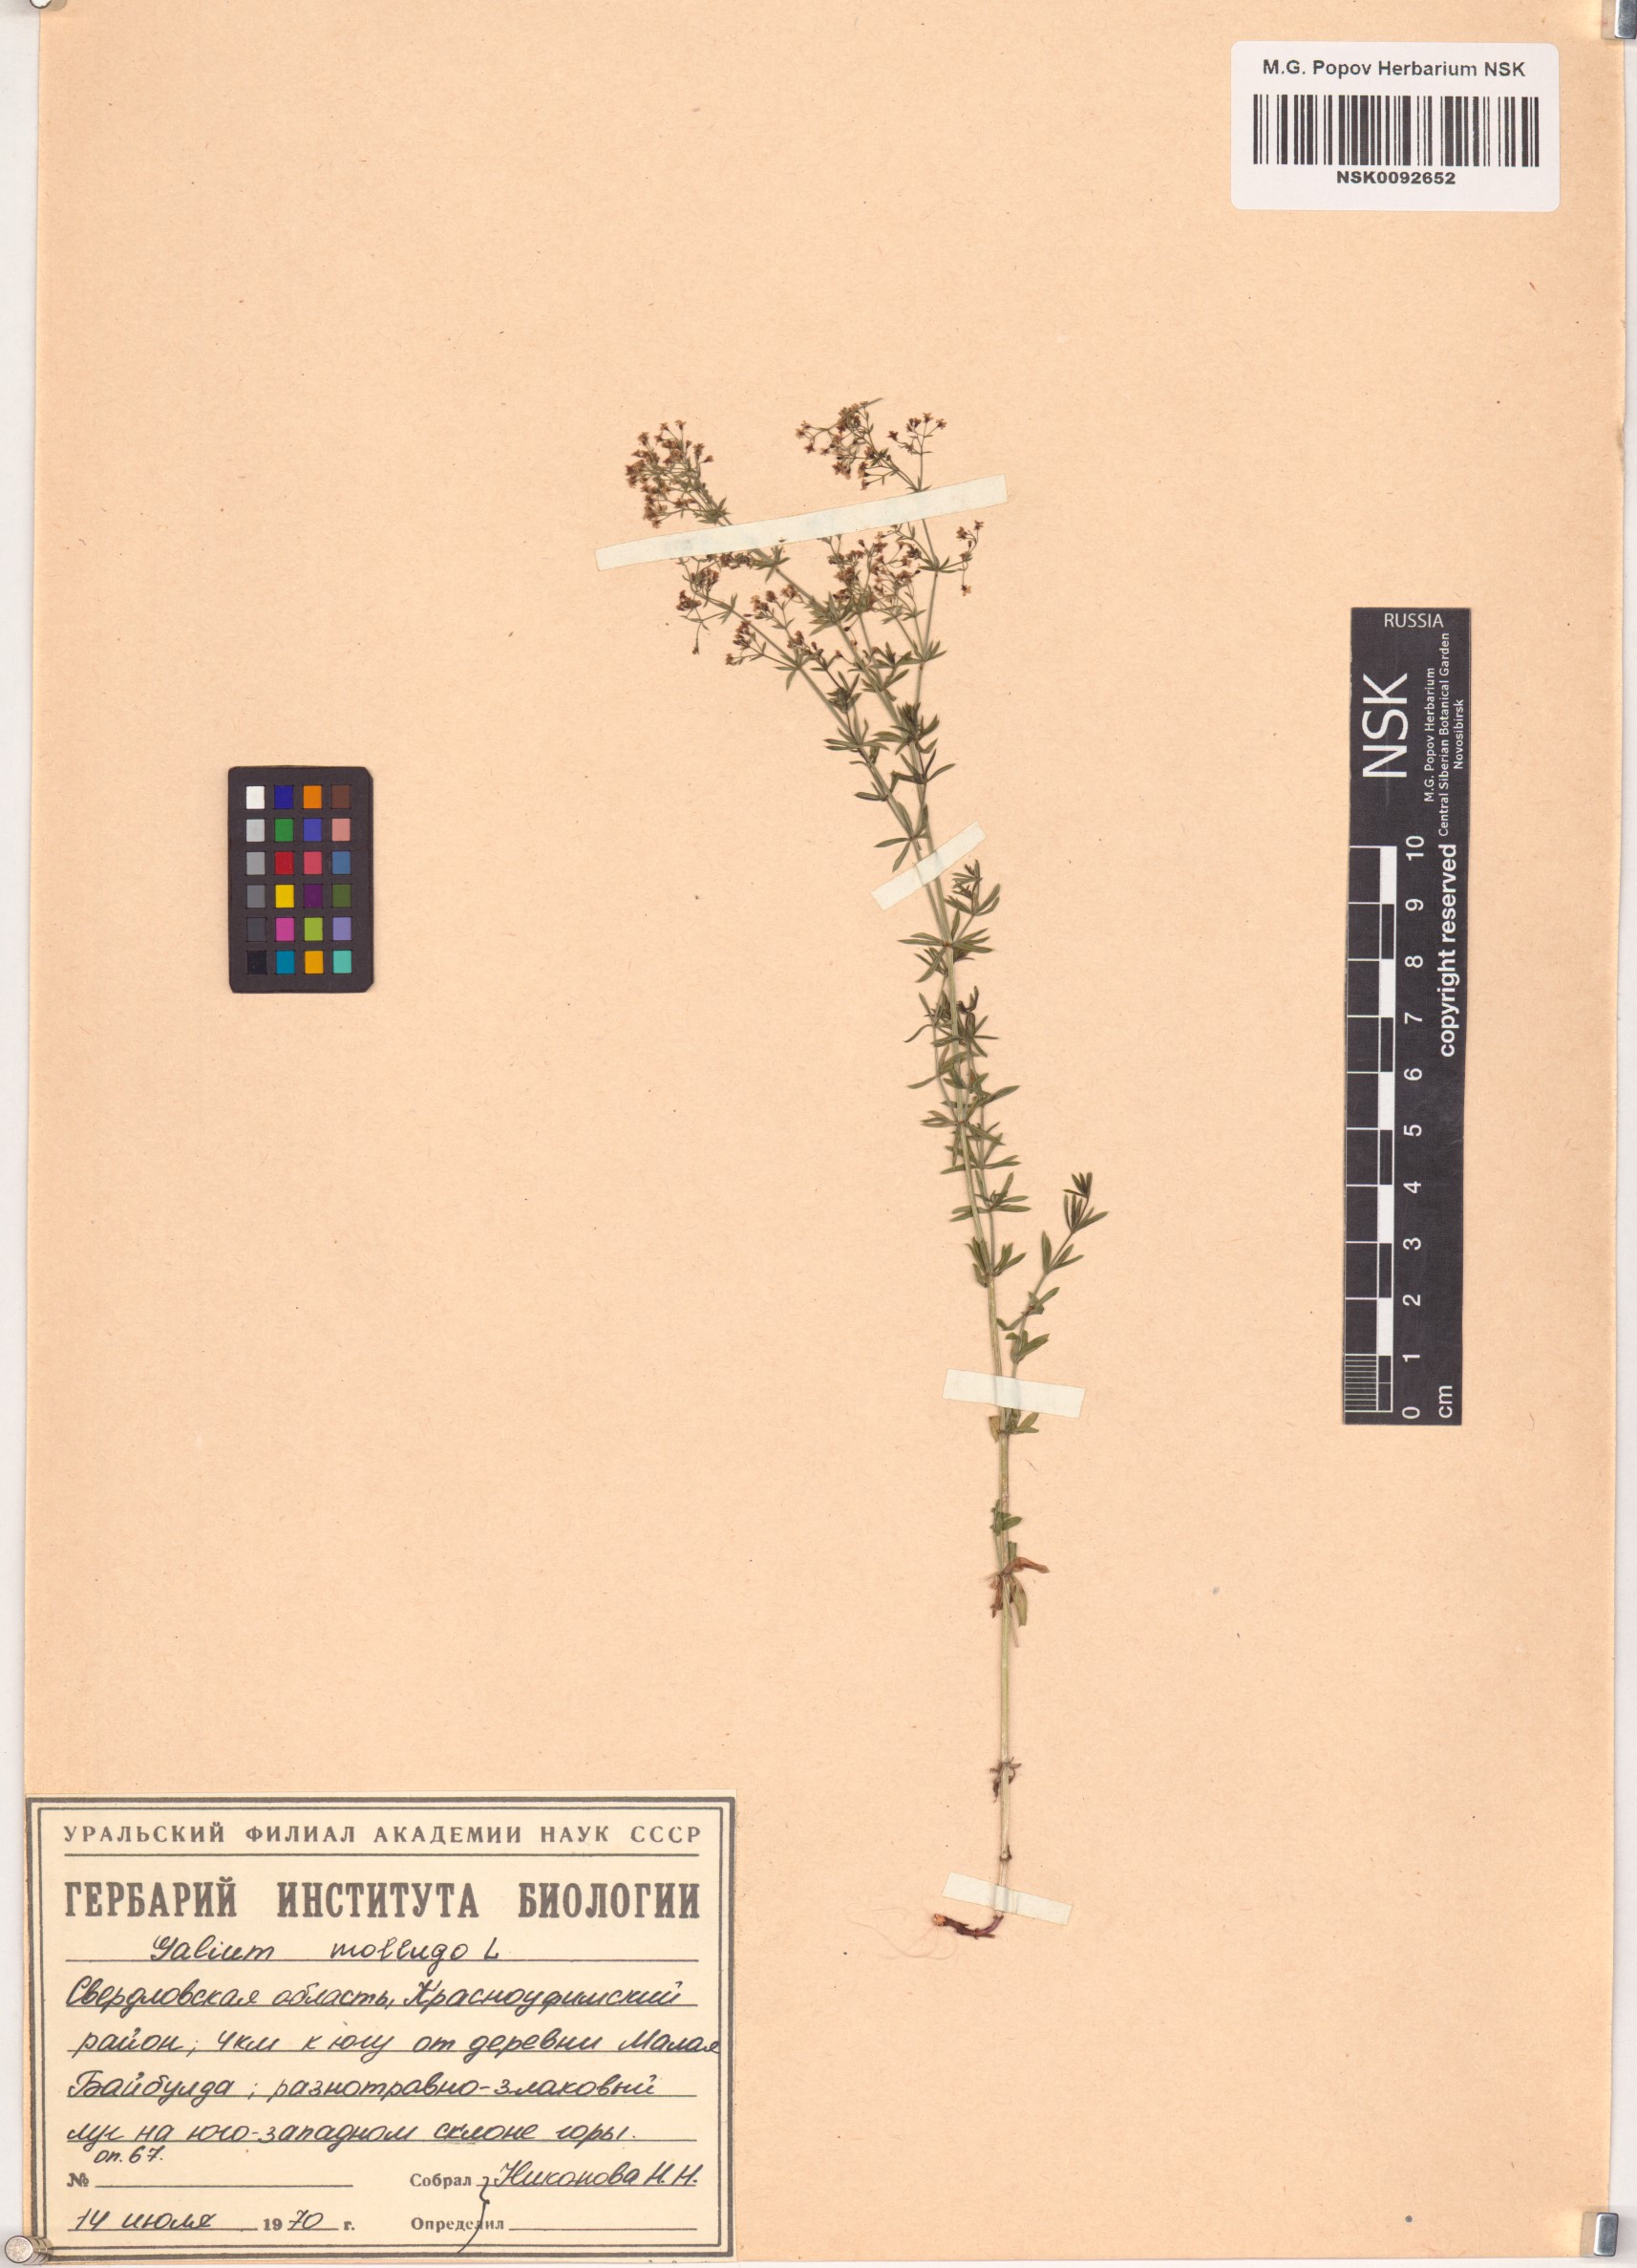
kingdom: Plantae
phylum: Tracheophyta
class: Magnoliopsida
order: Gentianales
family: Rubiaceae
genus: Galium
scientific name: Galium mollugo
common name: Hedge bedstraw
